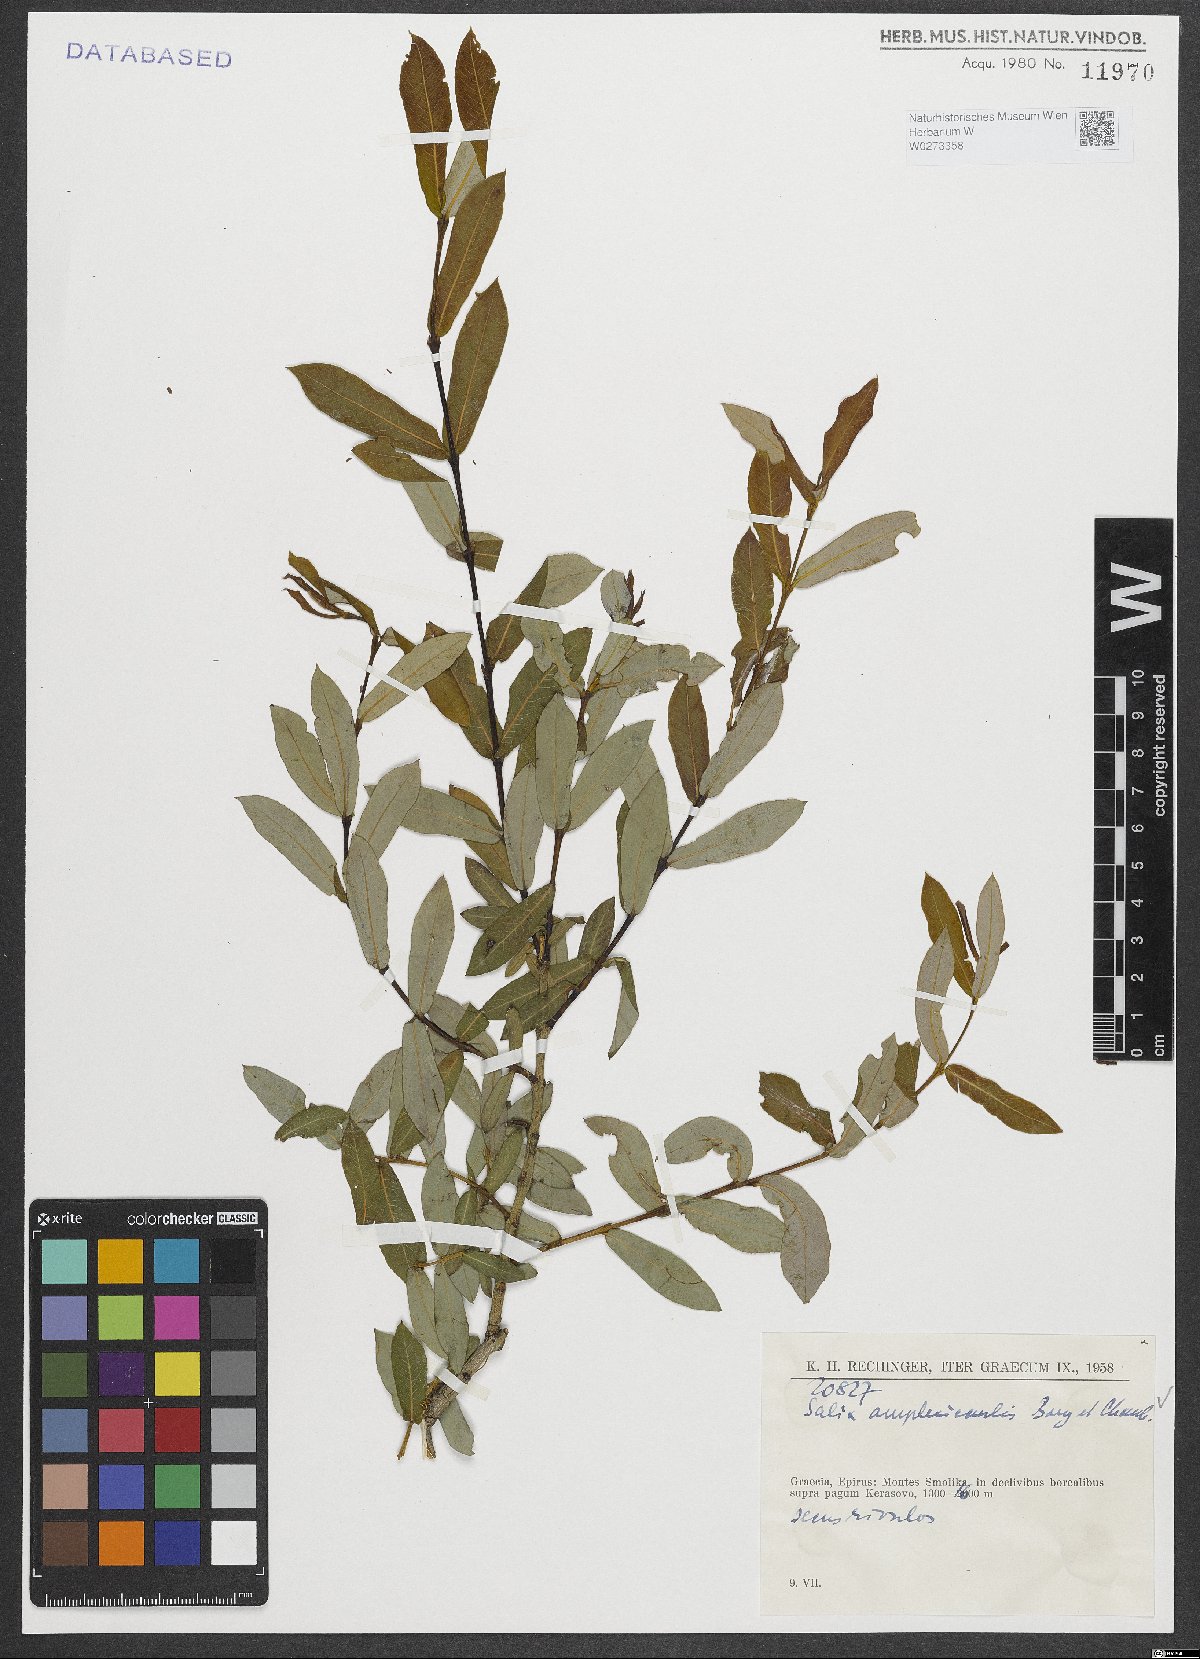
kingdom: Plantae
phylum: Tracheophyta
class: Magnoliopsida
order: Malpighiales
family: Salicaceae
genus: Salix
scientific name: Salix amplexicaulis
